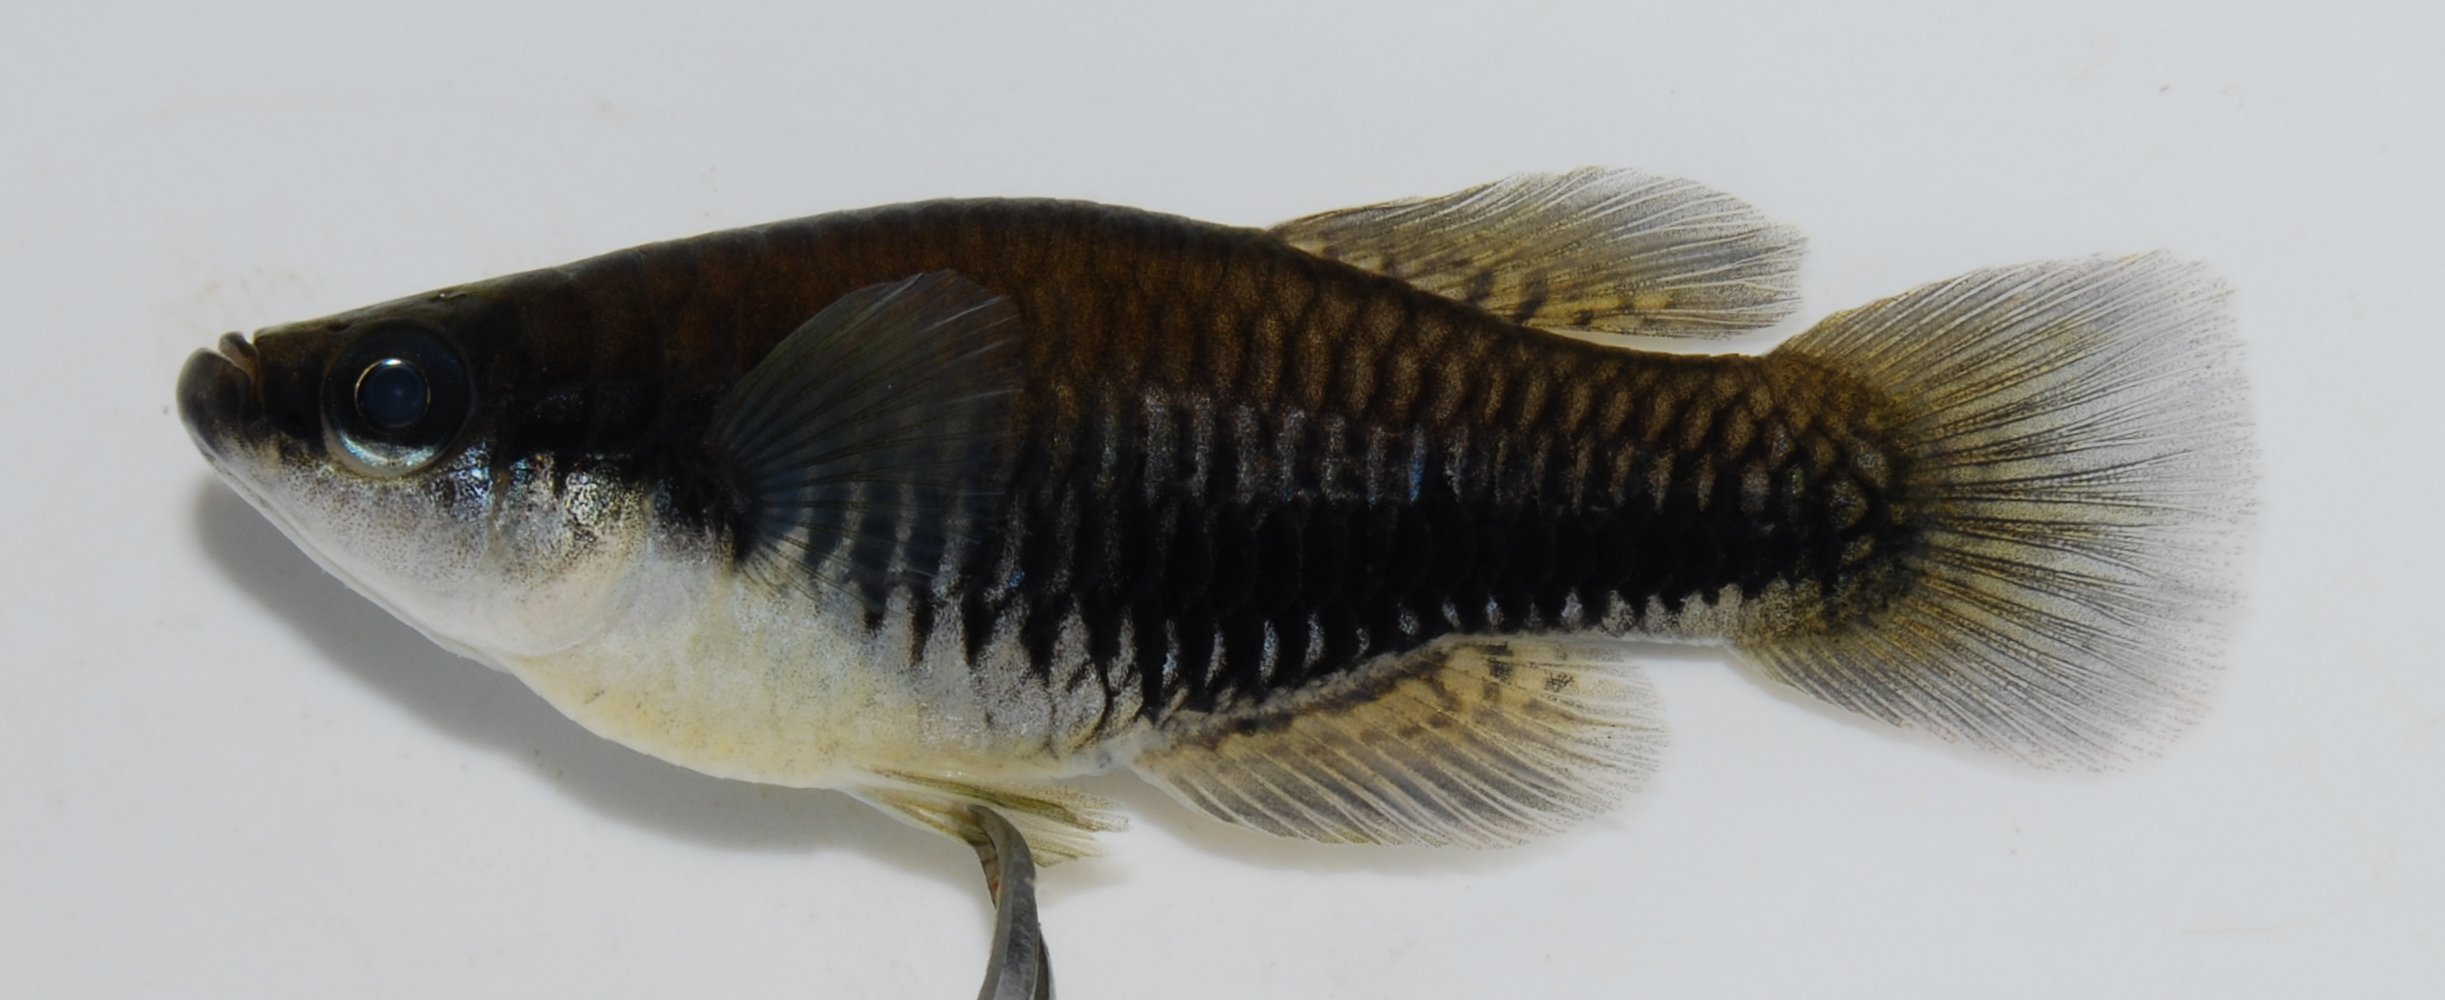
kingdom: Animalia
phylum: Chordata
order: Cyprinodontiformes
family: Poeciliidae
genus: Lacustricola
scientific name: Lacustricola katangae
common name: Striped topminnow
